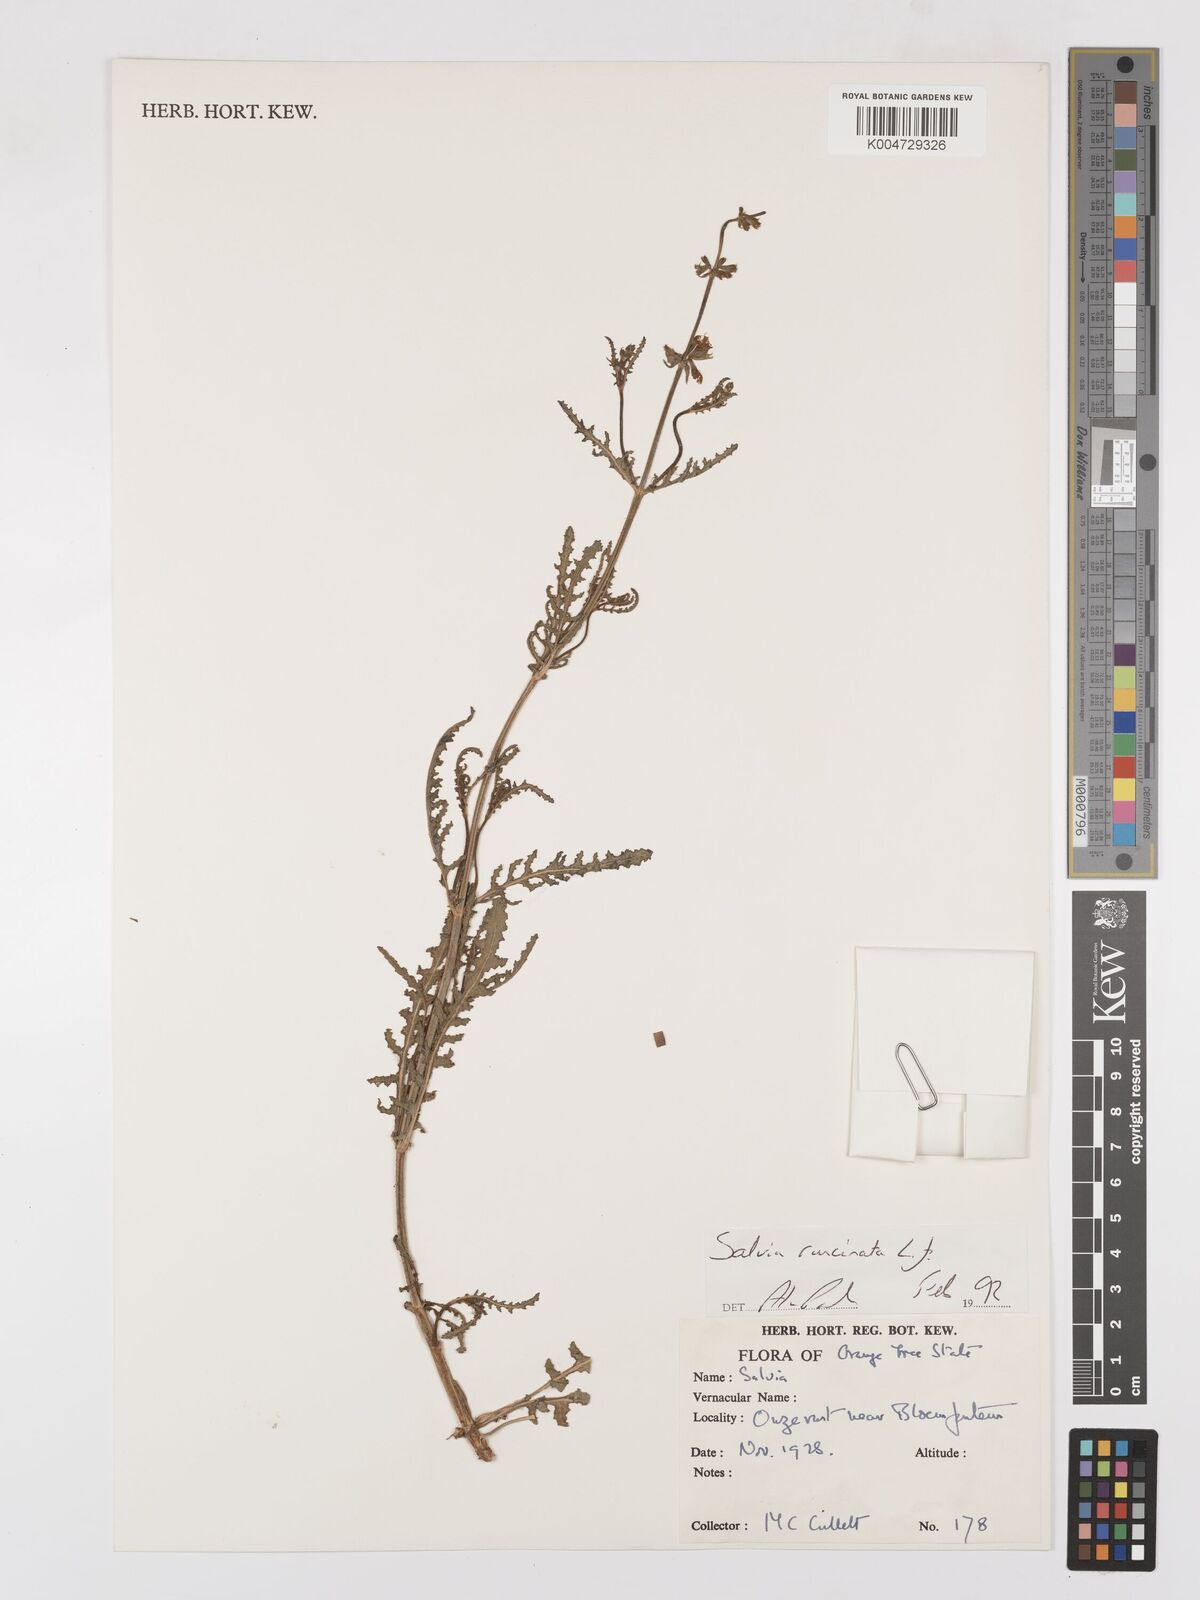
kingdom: Plantae
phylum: Tracheophyta
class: Magnoliopsida
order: Lamiales
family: Lamiaceae
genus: Salvia
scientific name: Salvia runcinata
